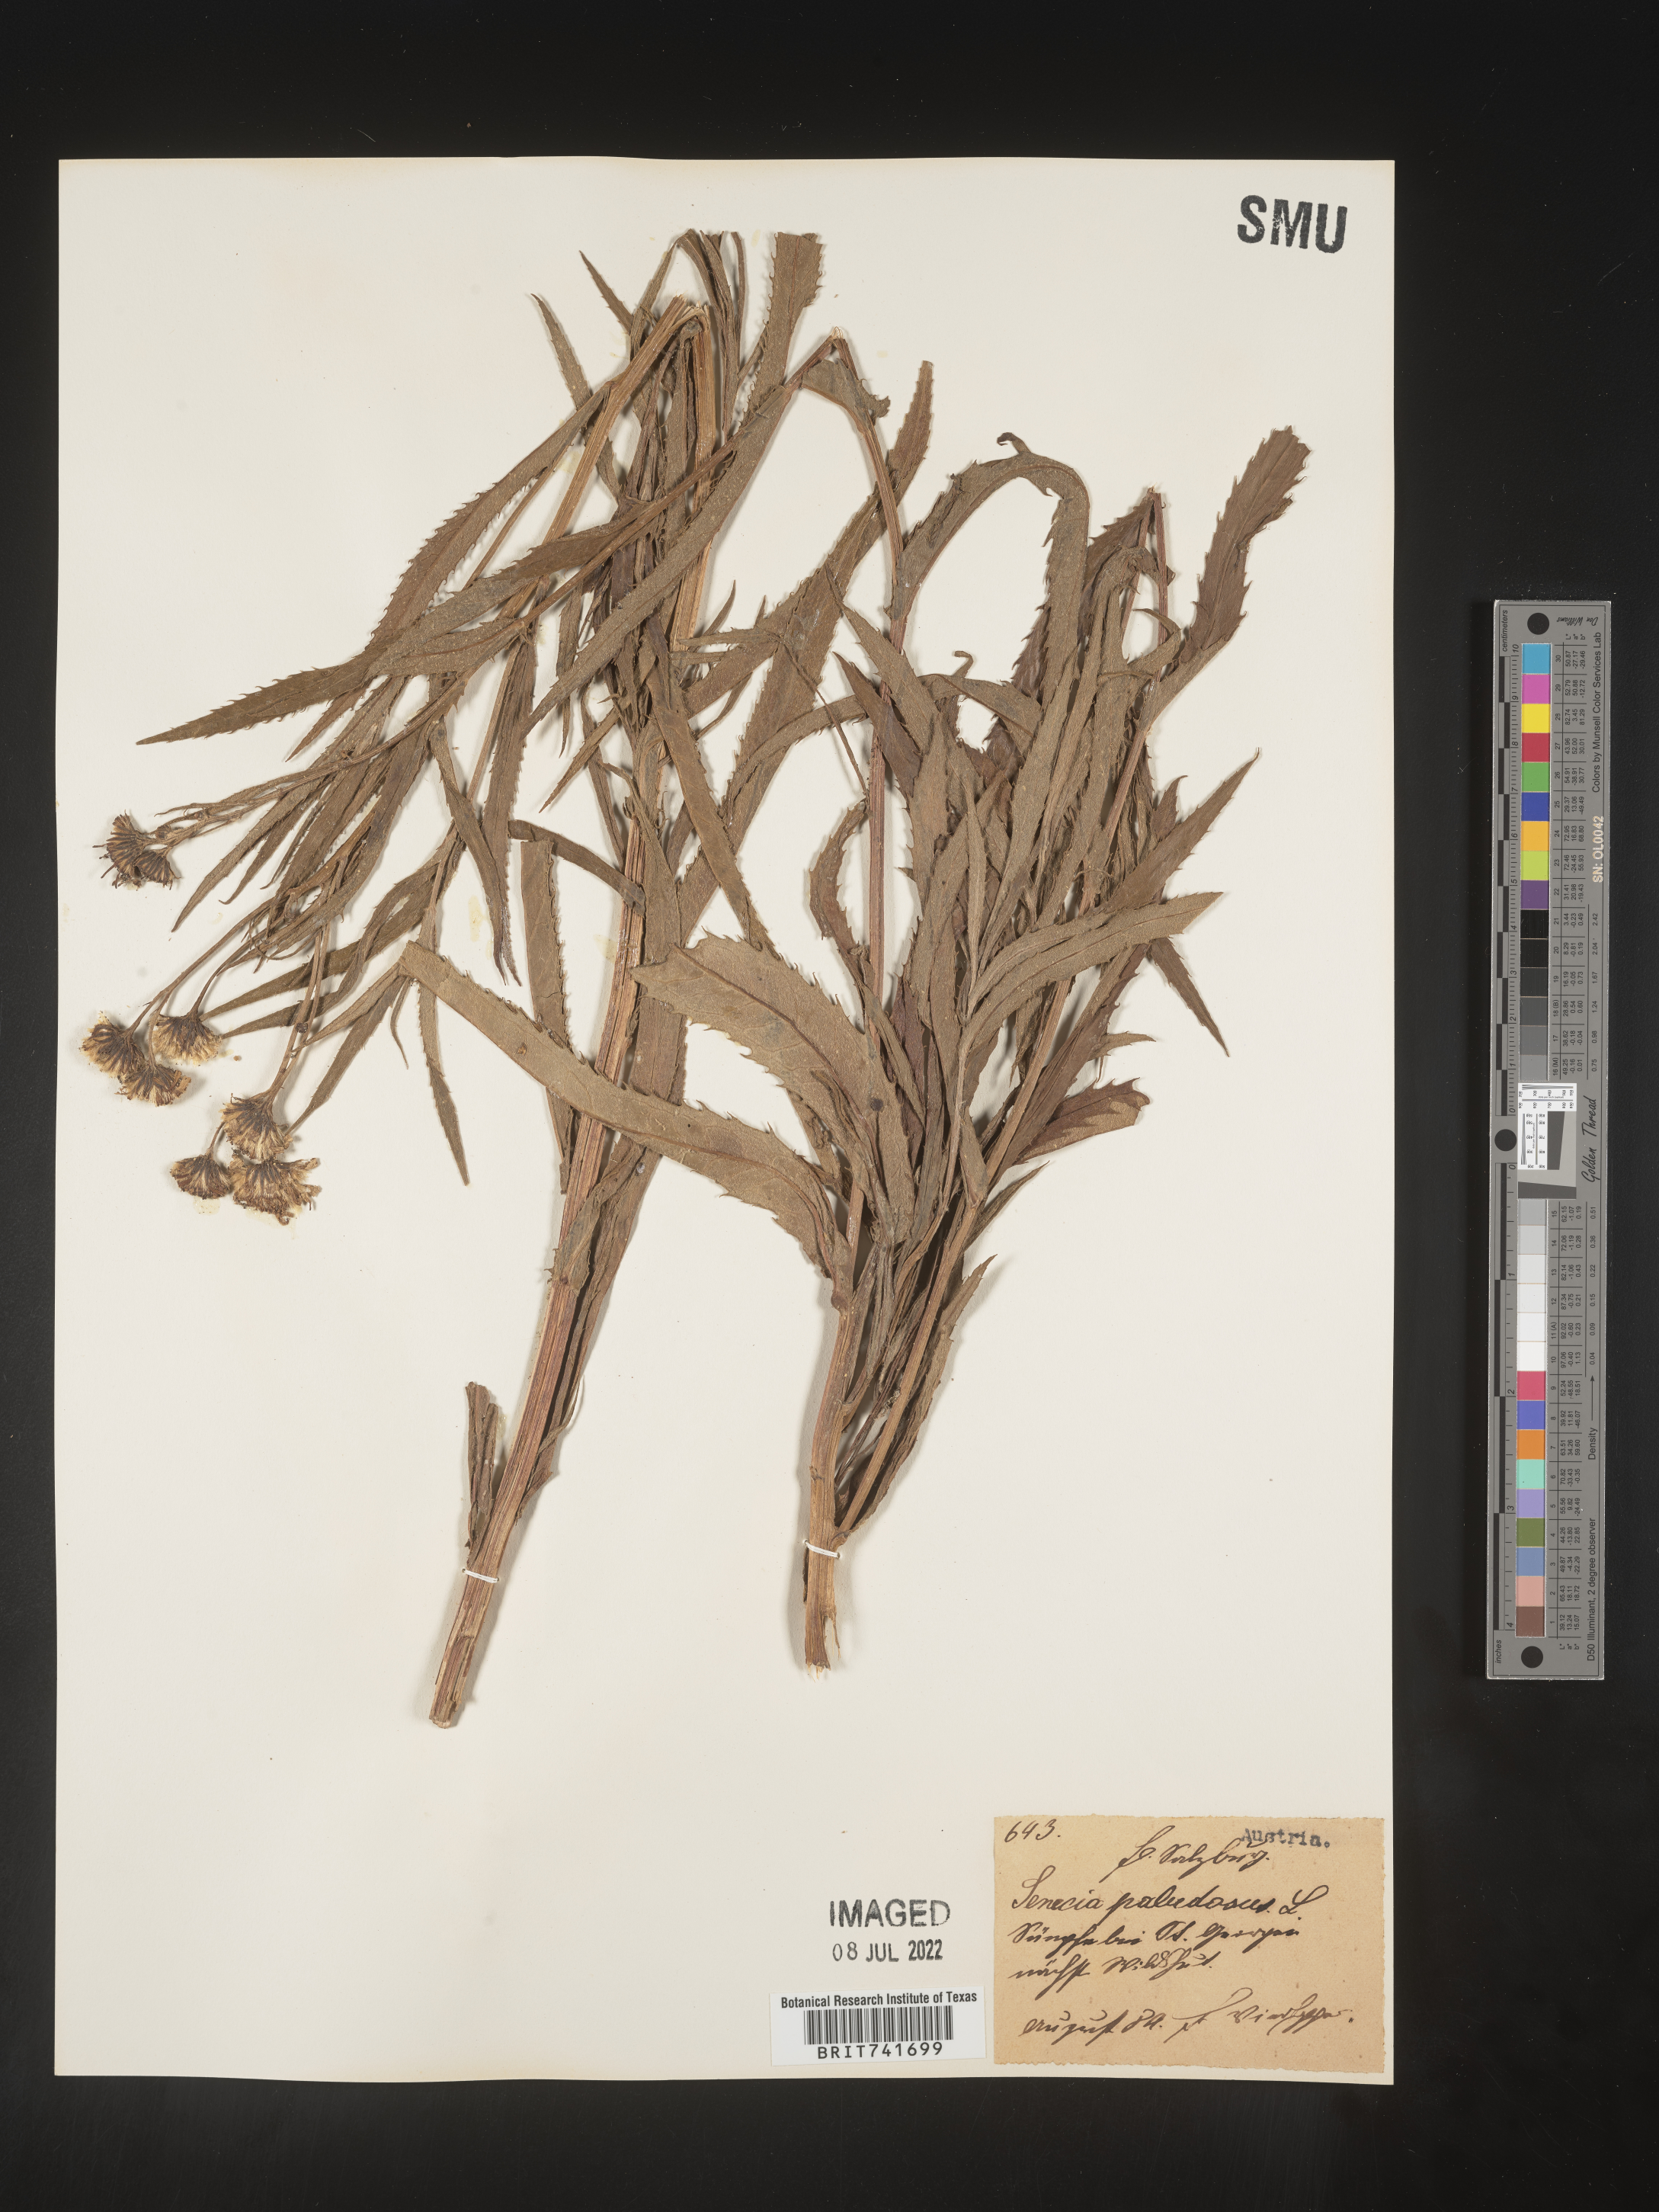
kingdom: Plantae
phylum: Tracheophyta
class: Magnoliopsida
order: Asterales
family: Asteraceae
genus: Senecio
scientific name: Senecio
